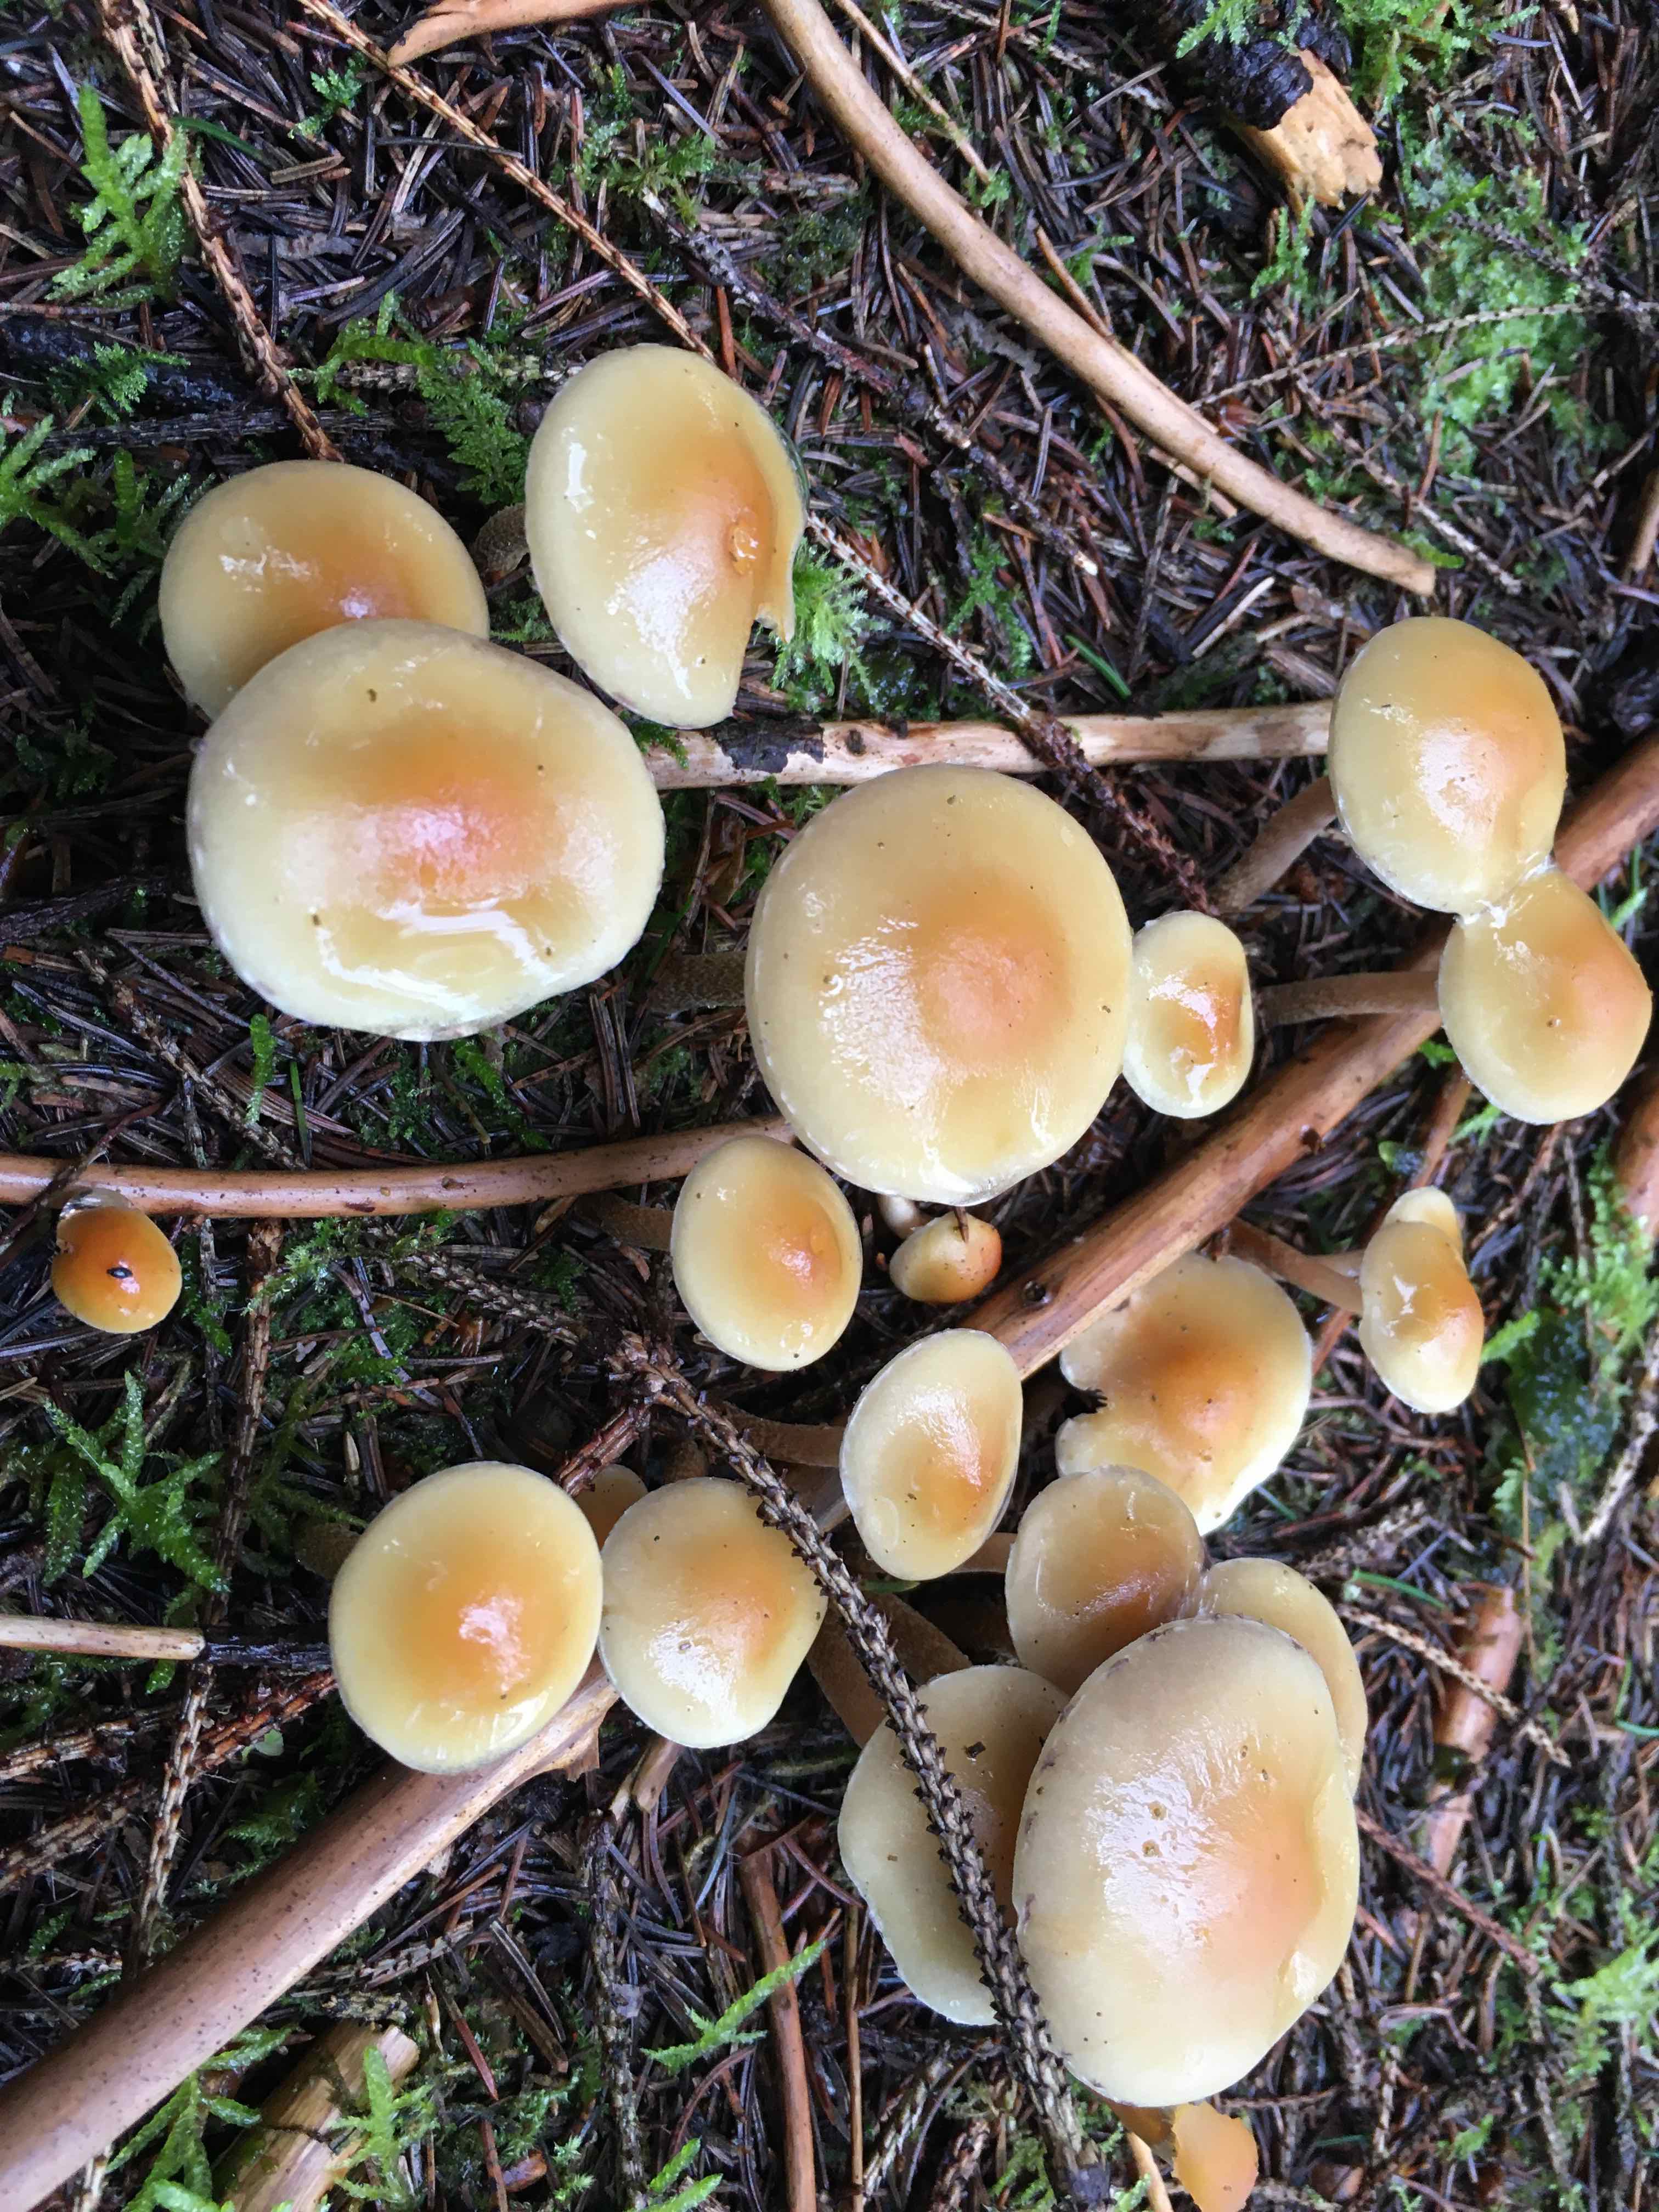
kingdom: Fungi
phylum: Basidiomycota
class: Agaricomycetes
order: Agaricales
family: Strophariaceae
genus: Hypholoma
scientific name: Hypholoma capnoides
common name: gran-svovlhat
